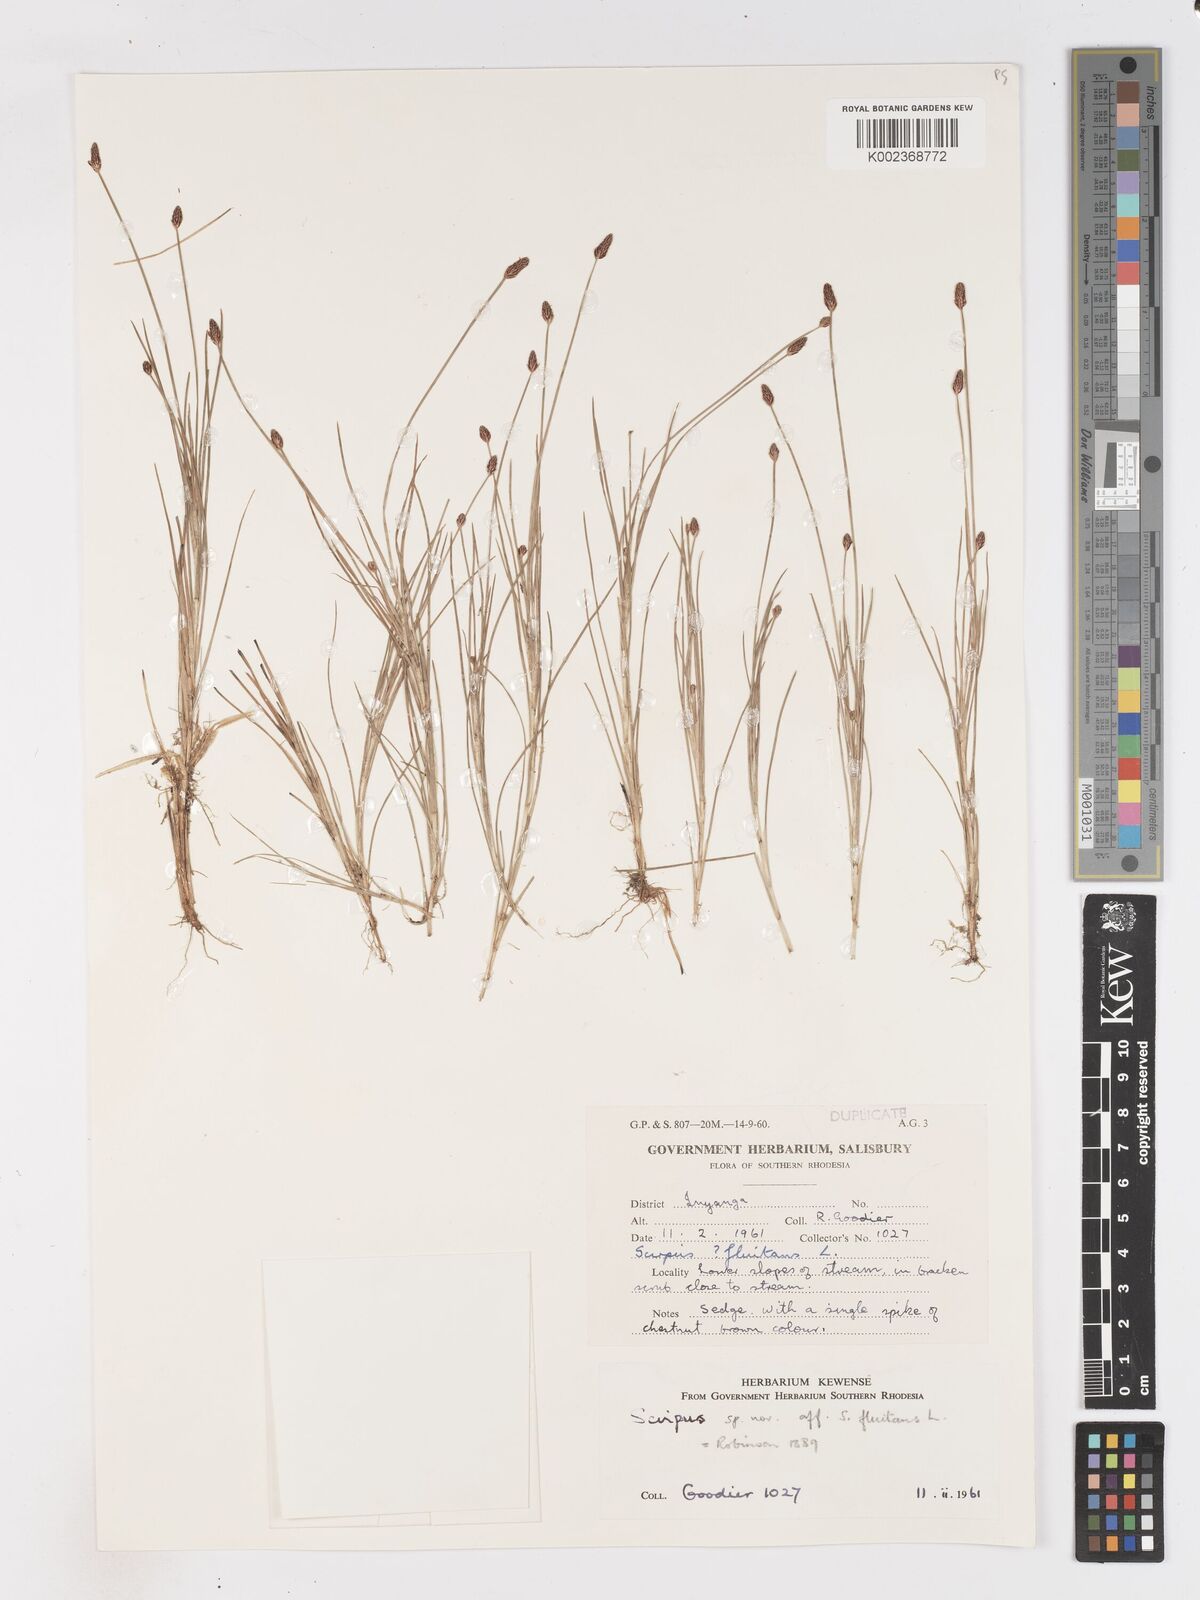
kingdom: Plantae
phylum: Tracheophyta
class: Liliopsida
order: Poales
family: Cyperaceae
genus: Isolepis
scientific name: Isolepis fluitans
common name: Floating club-rush
